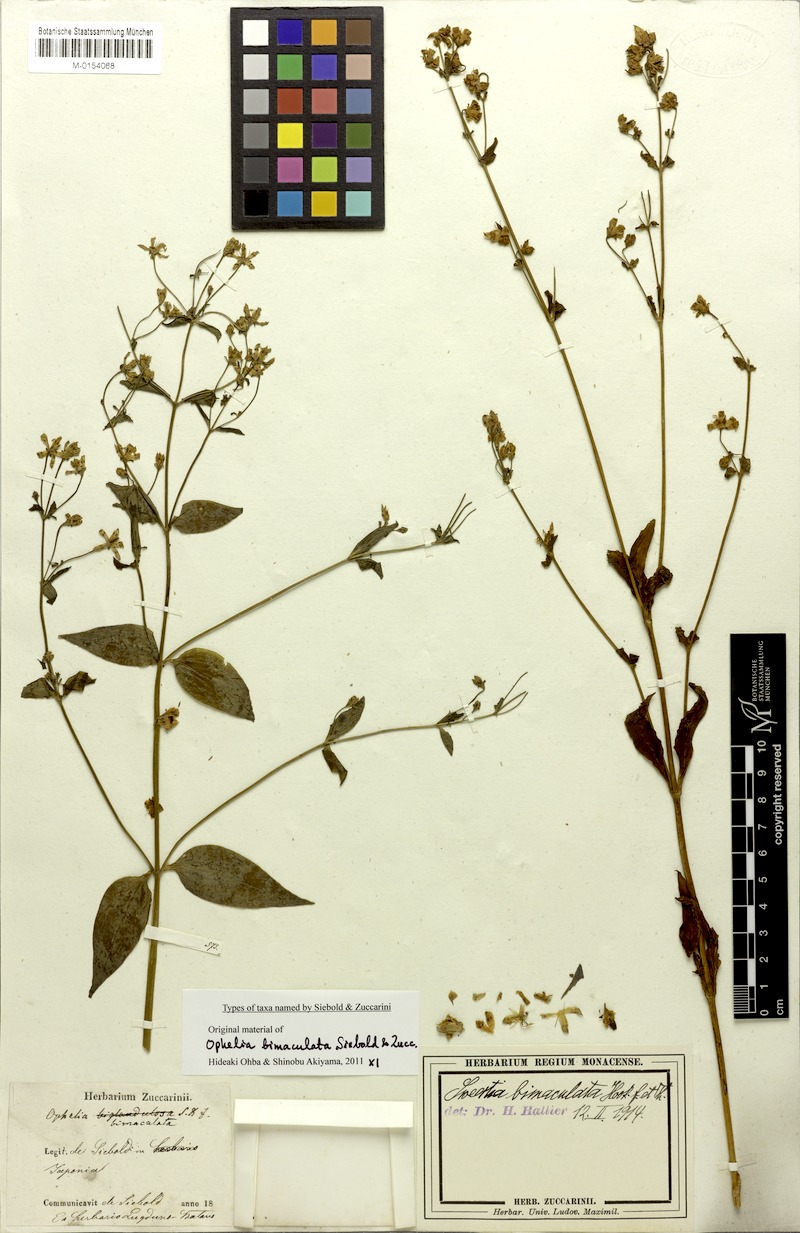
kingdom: Plantae
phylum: Tracheophyta
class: Magnoliopsida
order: Gentianales
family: Gentianaceae
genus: Swertia
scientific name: Swertia bimaculata
